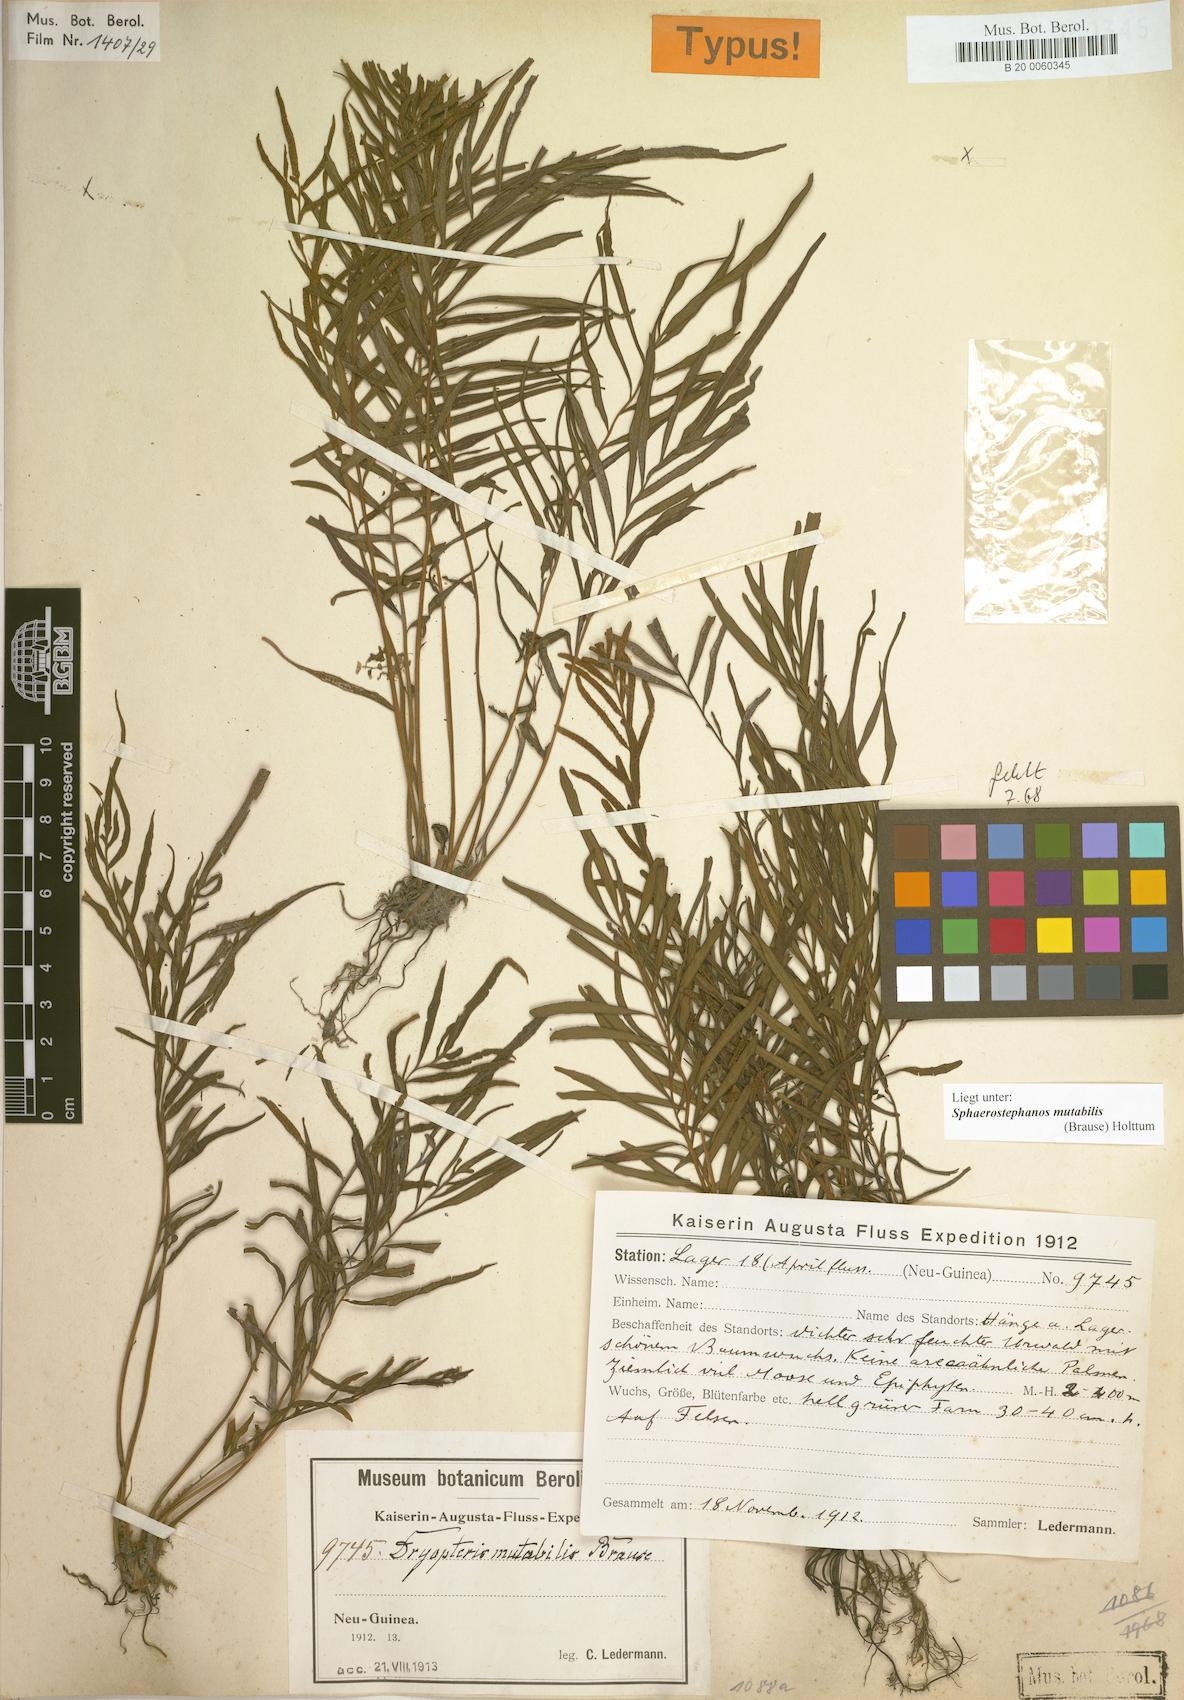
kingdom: Plantae
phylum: Tracheophyta
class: Polypodiopsida
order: Polypodiales
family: Thelypteridaceae
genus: Sphaerostephanos
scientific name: Sphaerostephanos mutabilis
